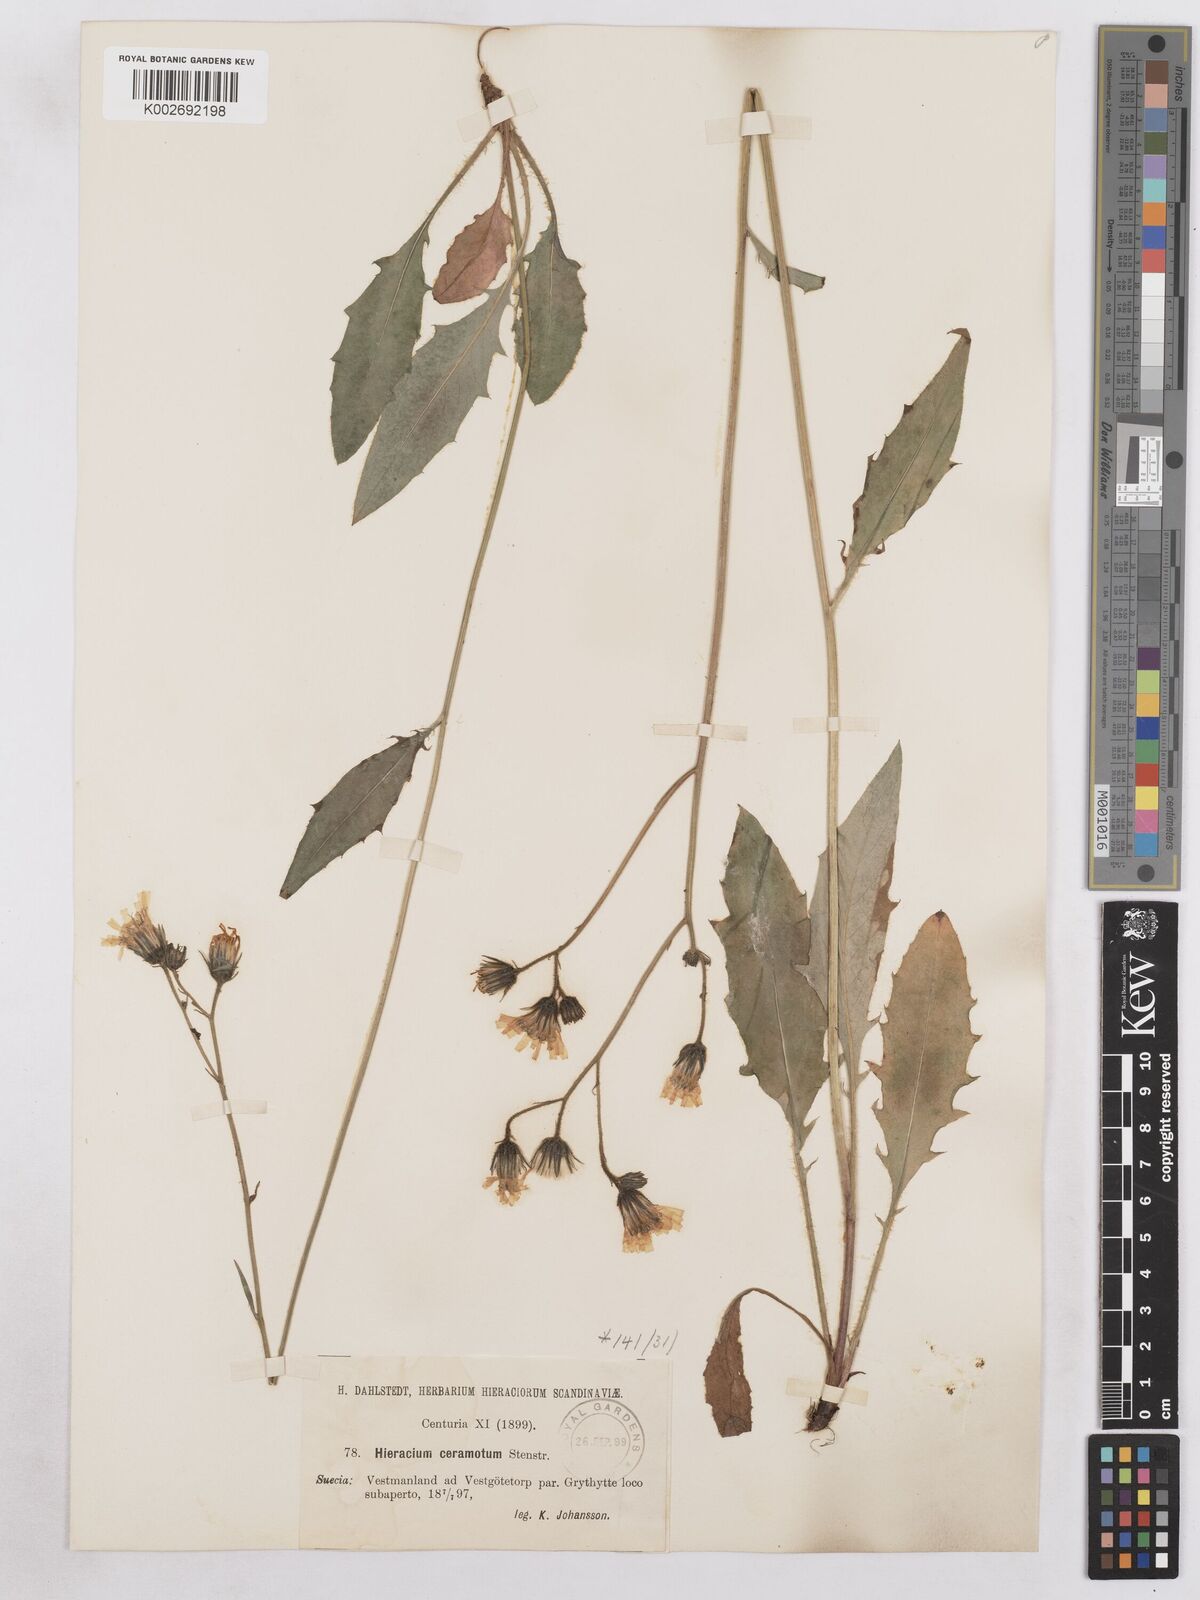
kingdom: Plantae
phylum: Tracheophyta
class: Magnoliopsida
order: Asterales
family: Asteraceae
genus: Hieracium
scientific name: Hieracium diaphanoides
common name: Fine-bracted hawkweed
